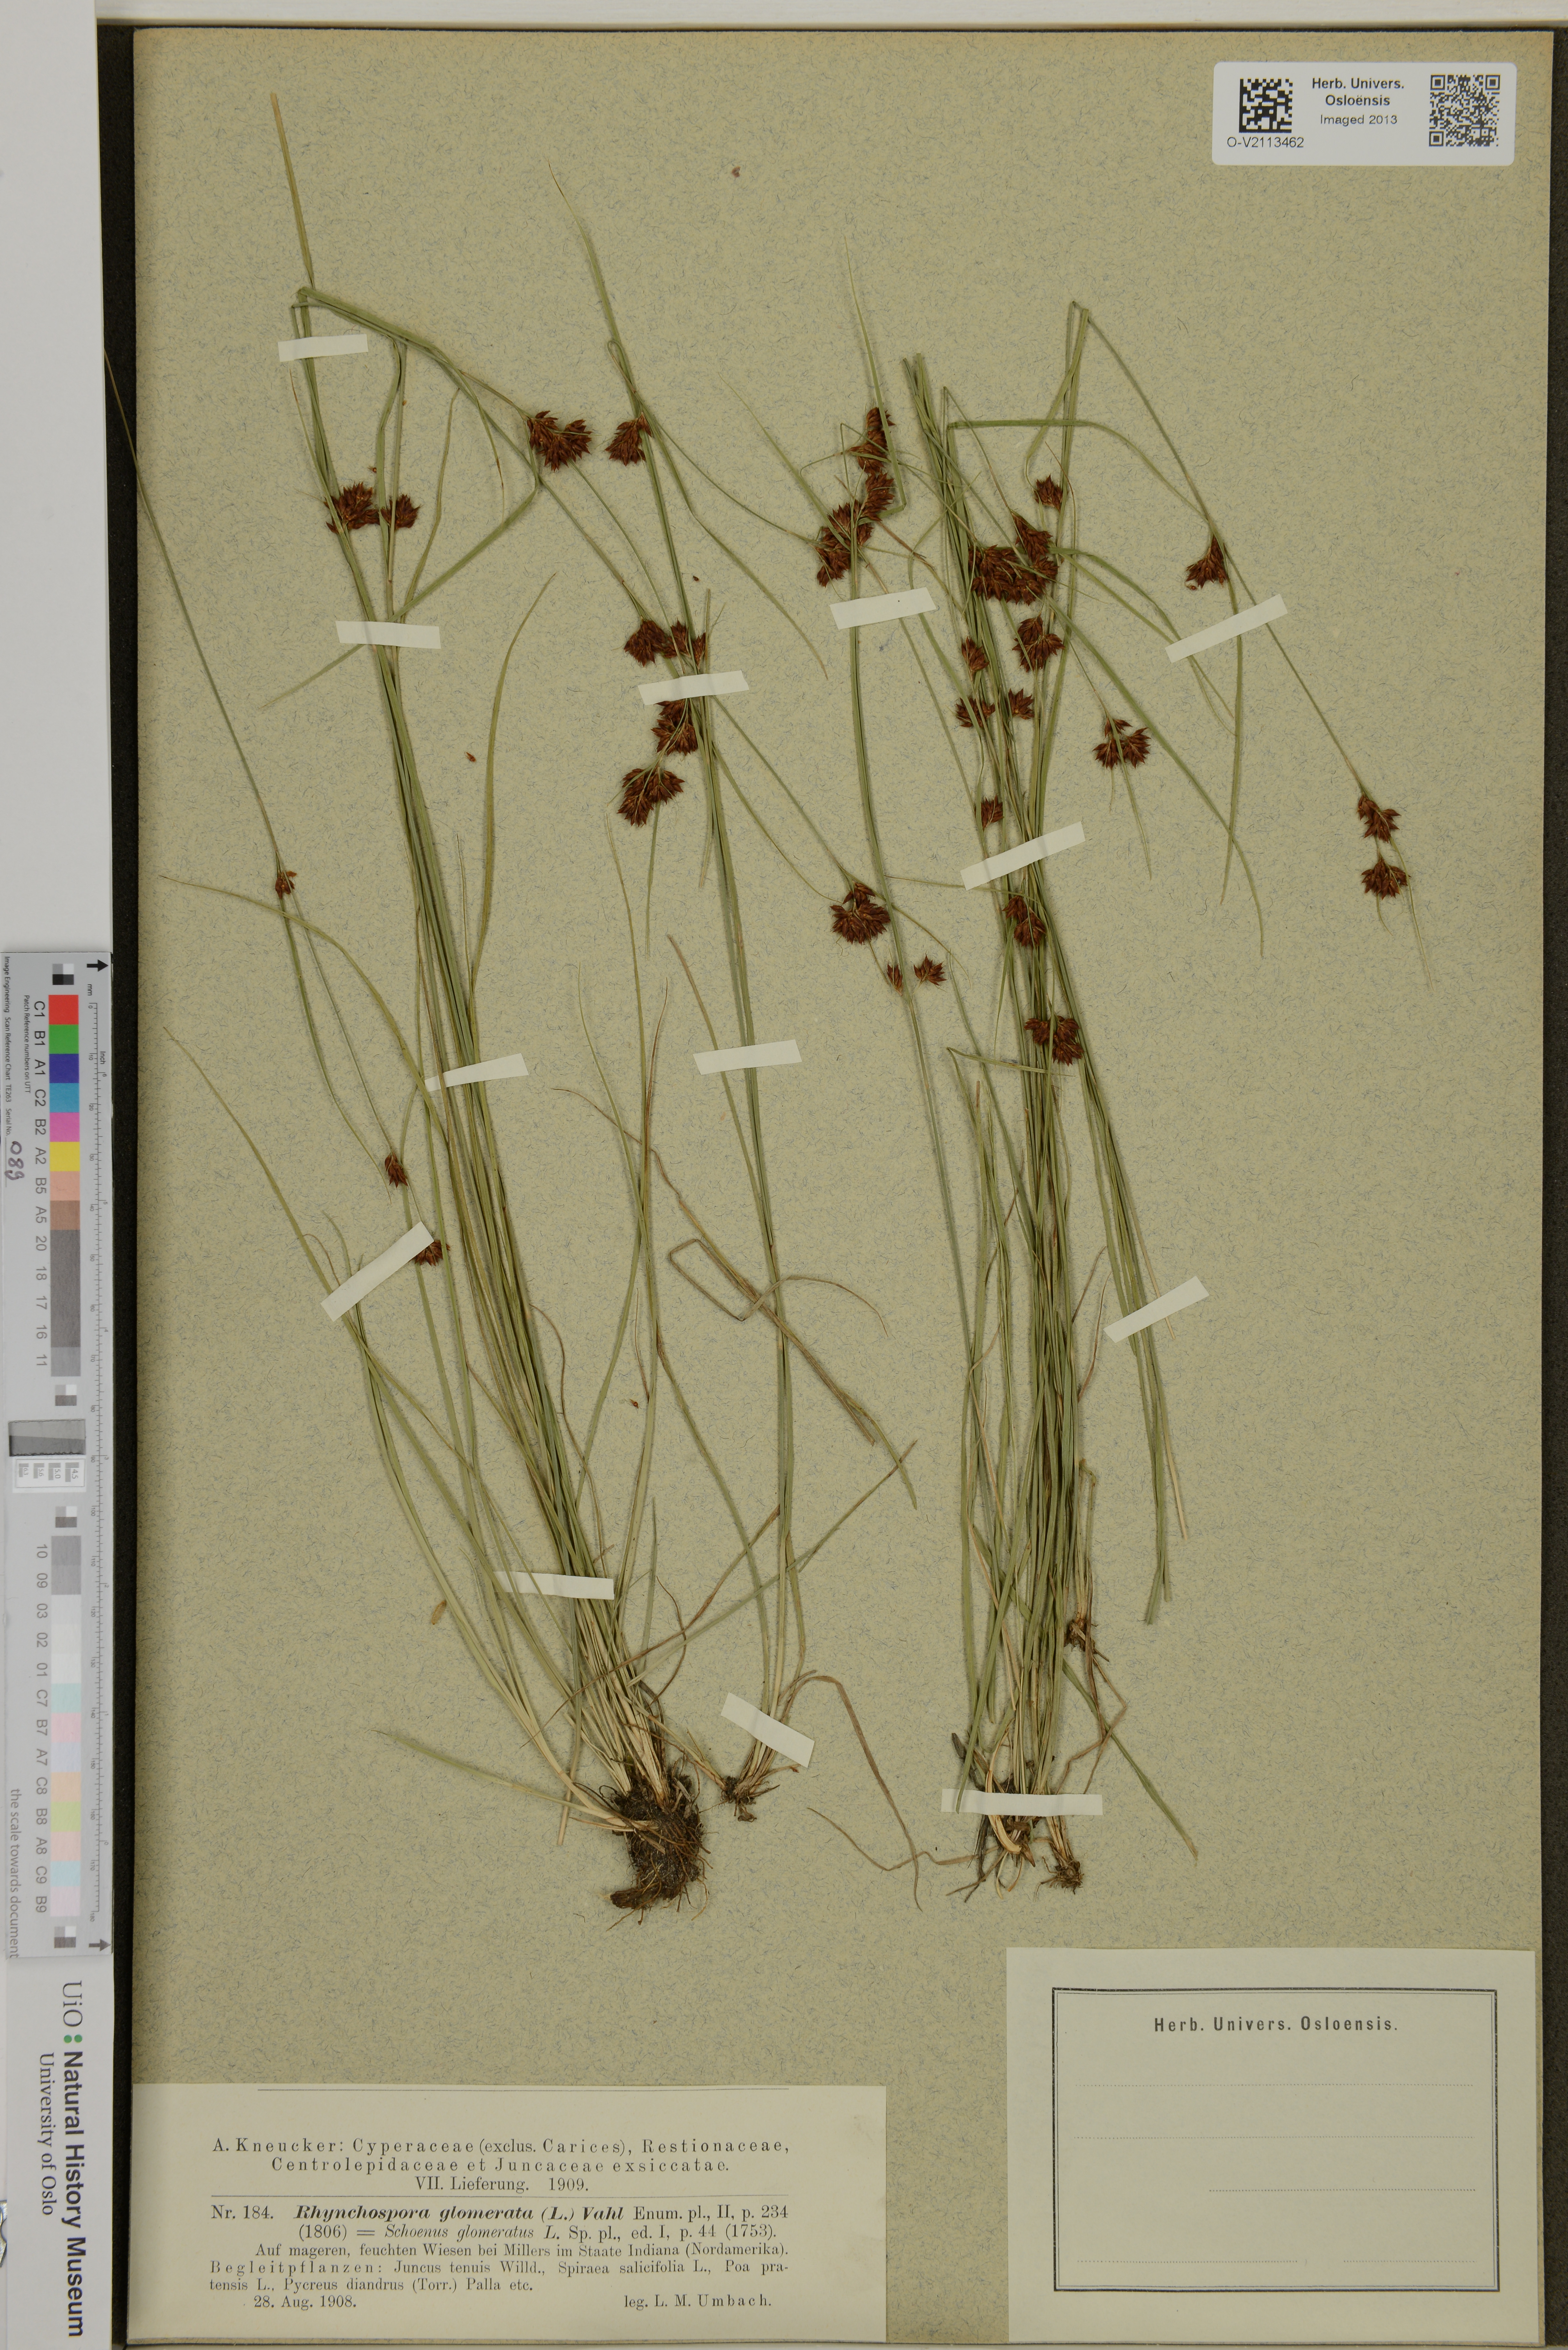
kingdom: Plantae
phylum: Tracheophyta
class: Liliopsida
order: Poales
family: Cyperaceae
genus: Rhynchospora
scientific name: Rhynchospora glomerata
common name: Cluster beak sedge
